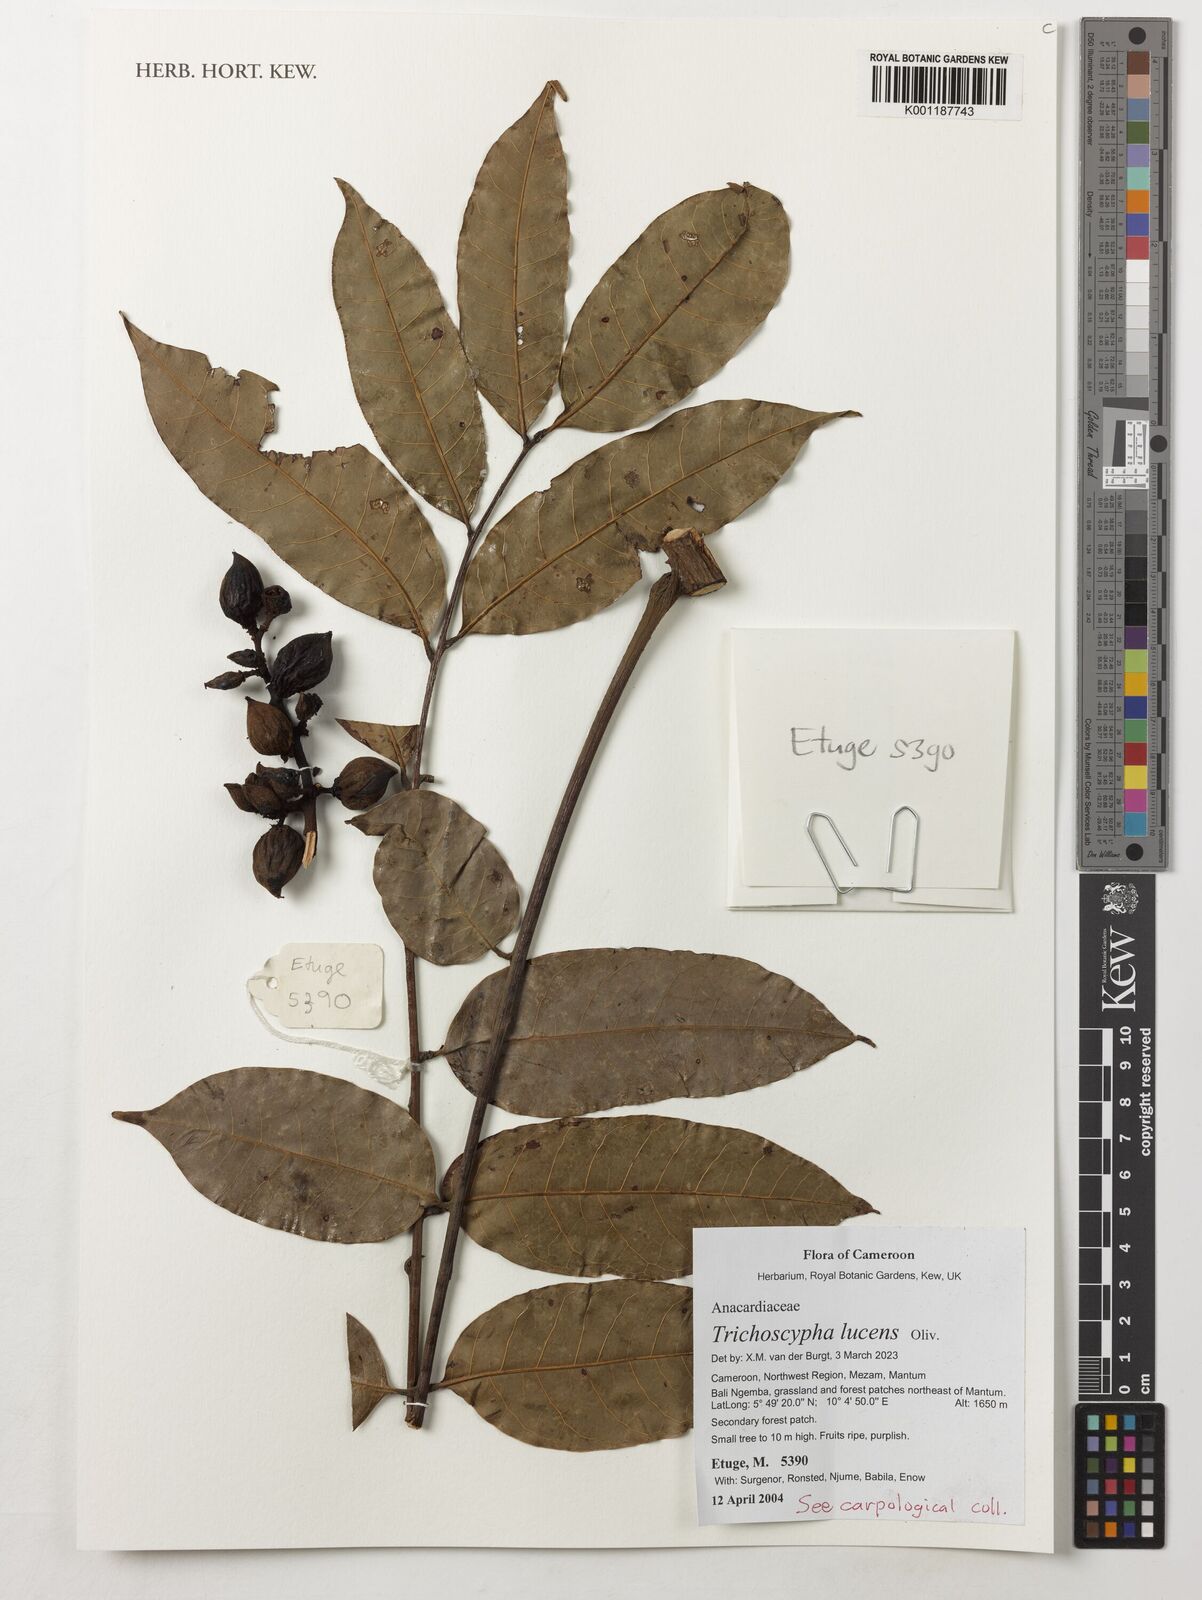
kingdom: Plantae
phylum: Tracheophyta
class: Magnoliopsida
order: Sapindales
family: Anacardiaceae
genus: Trichoscypha
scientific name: Trichoscypha lucens
